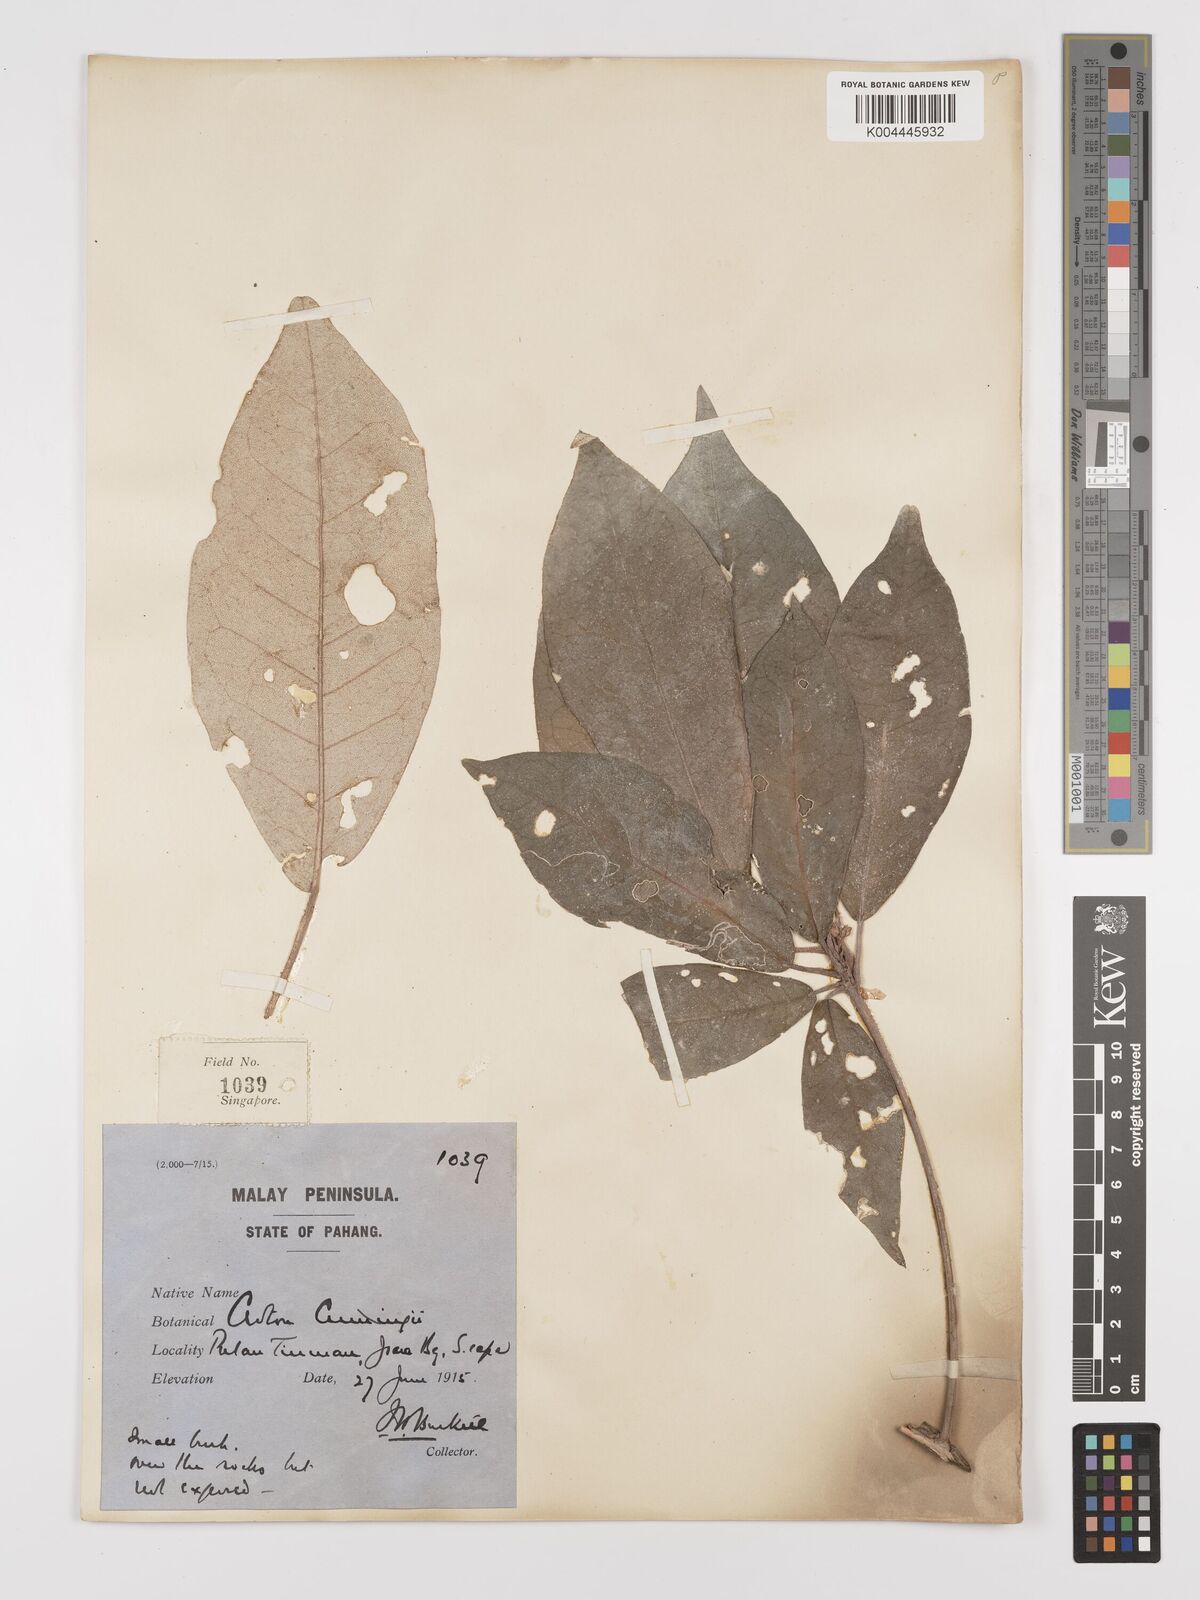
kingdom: Plantae
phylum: Tracheophyta
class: Magnoliopsida
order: Malpighiales
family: Euphorbiaceae
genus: Croton
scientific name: Croton cascarilloides
